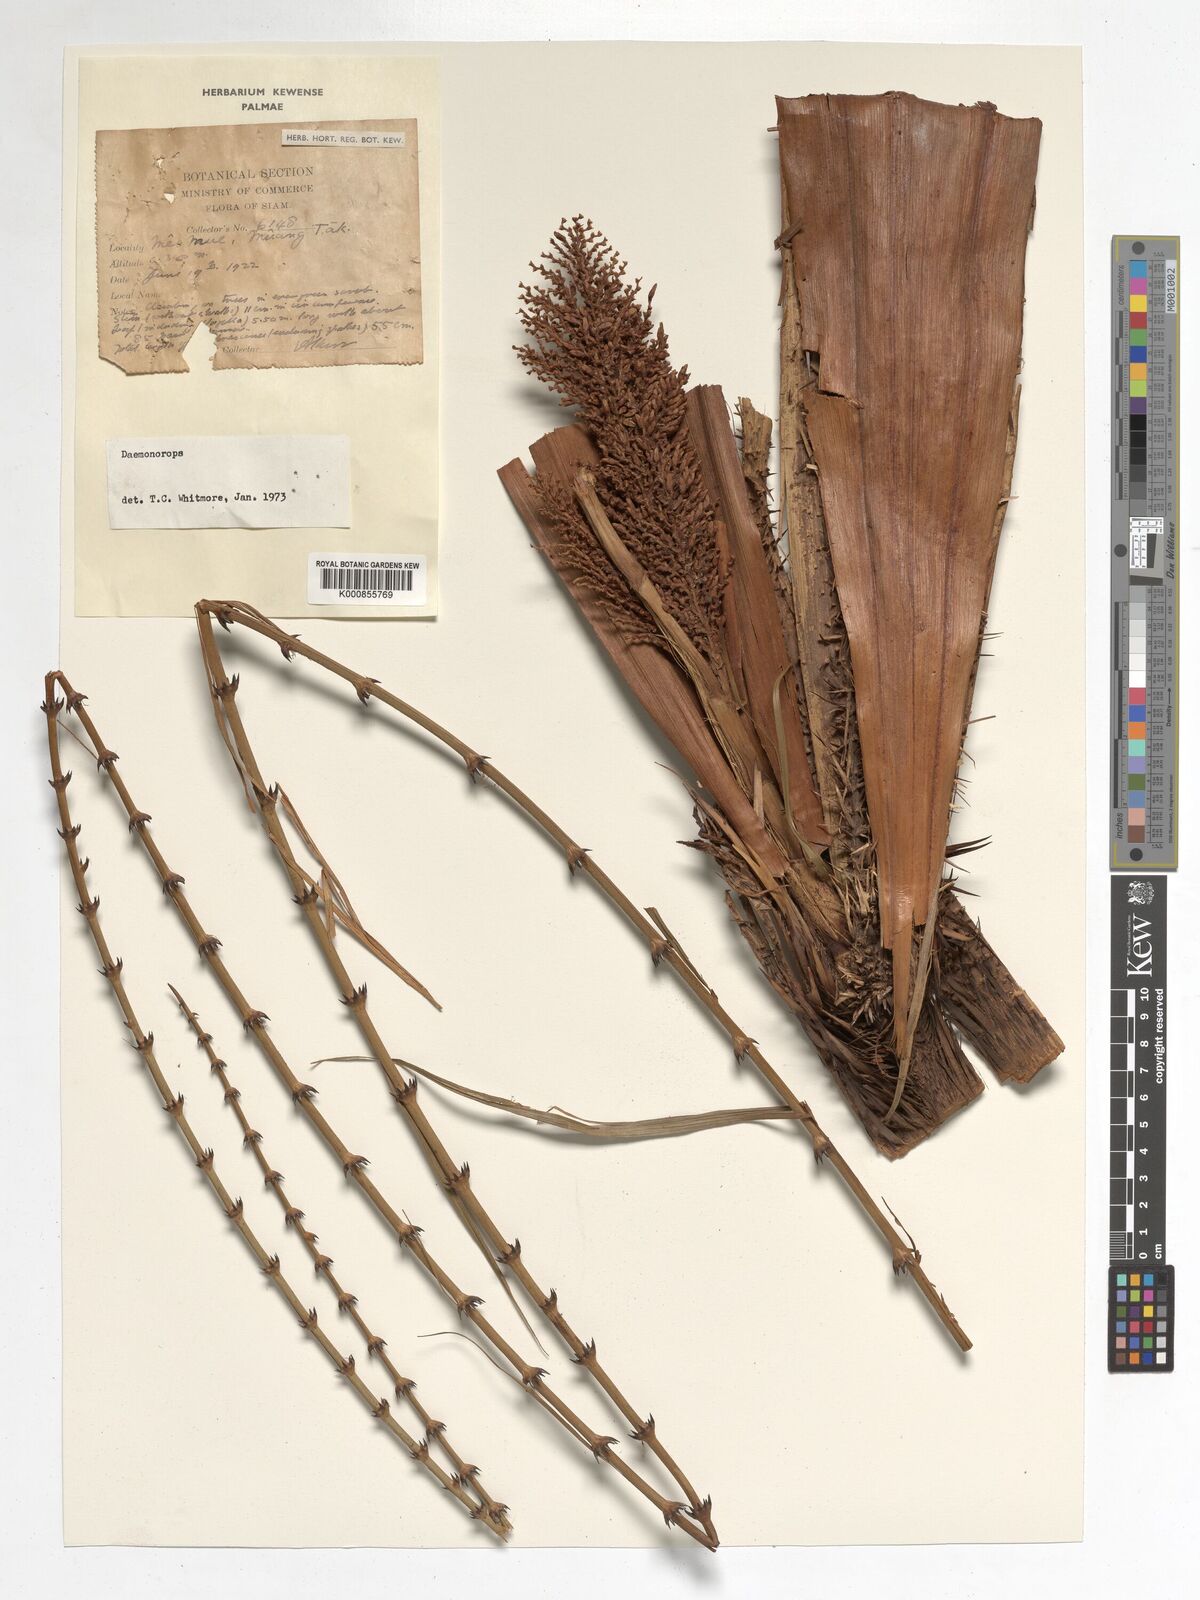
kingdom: Plantae
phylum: Tracheophyta
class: Liliopsida
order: Arecales
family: Arecaceae
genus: Daemonorops
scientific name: Daemonorops
